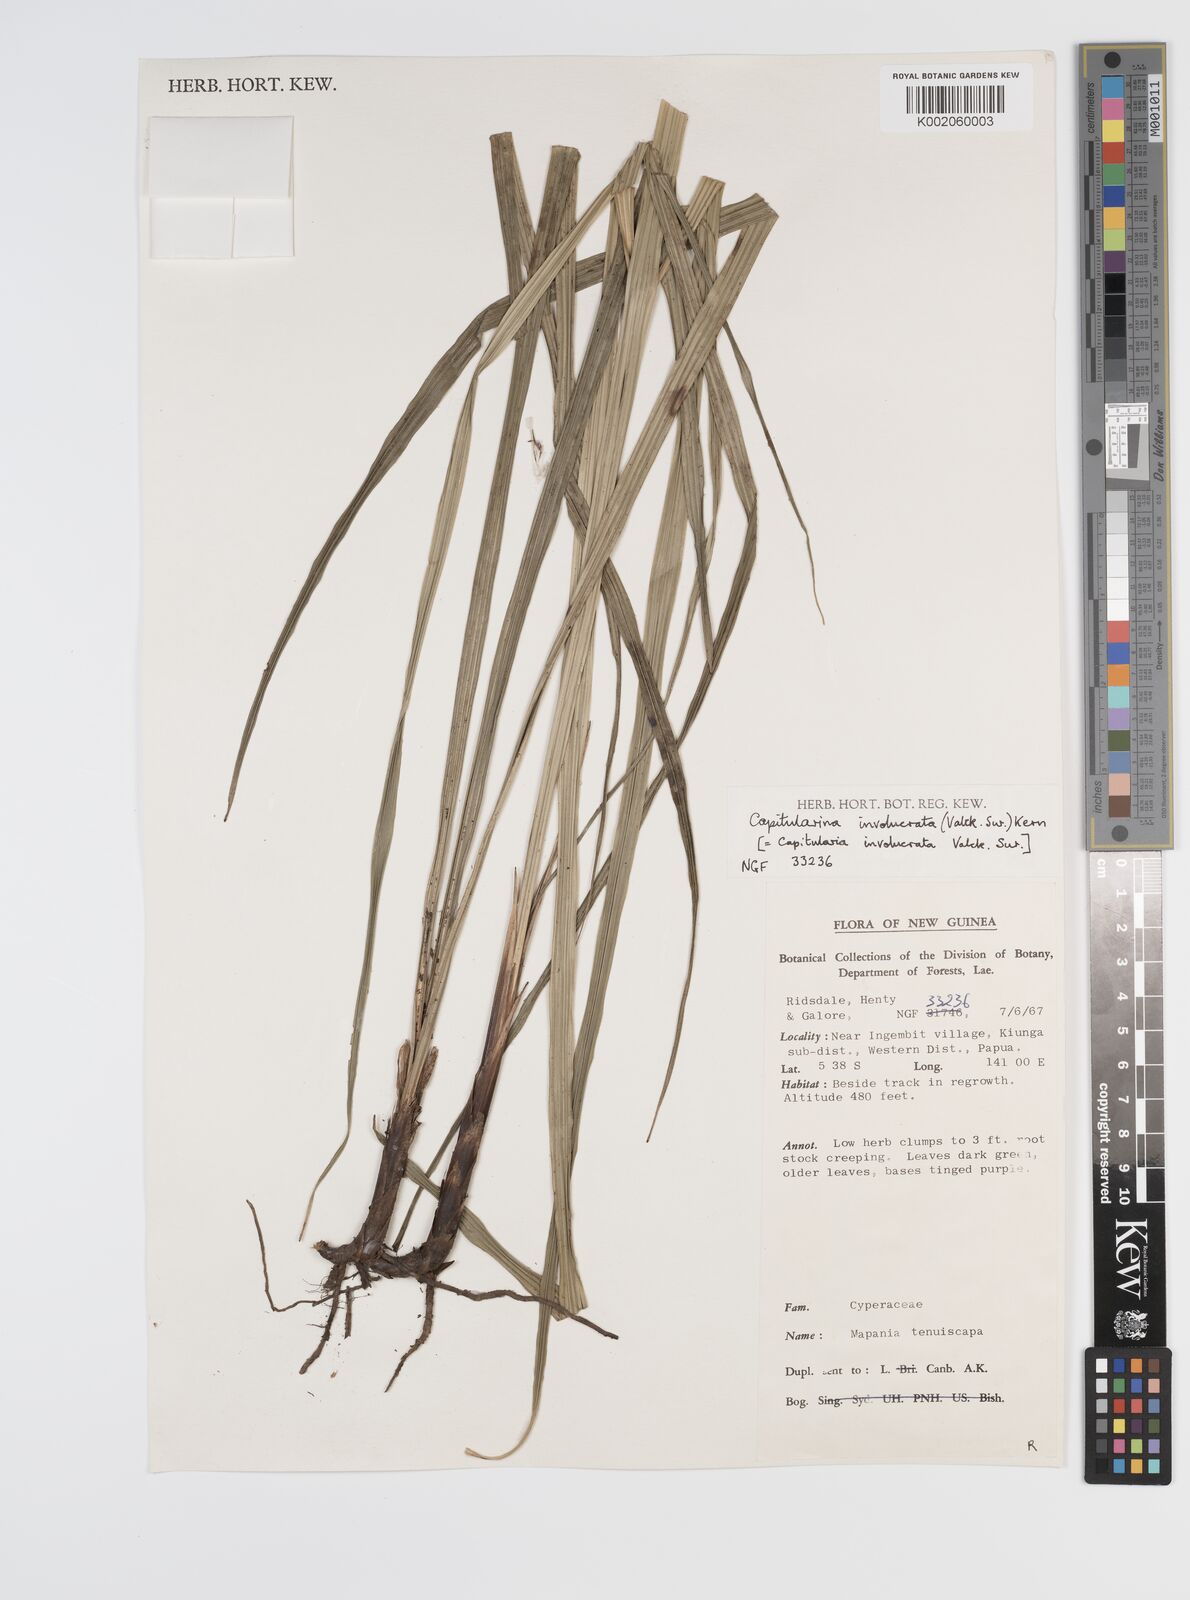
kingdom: Plantae
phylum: Tracheophyta
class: Liliopsida
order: Poales
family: Cyperaceae
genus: Capitularina
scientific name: Capitularina involucrata
